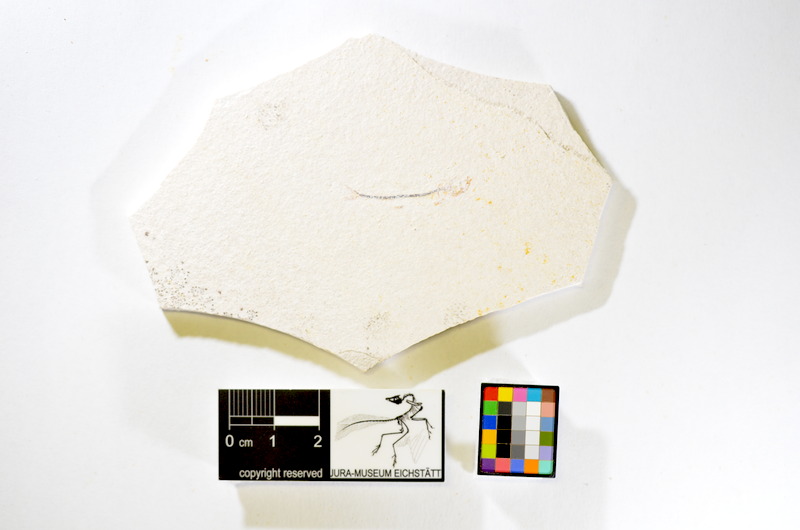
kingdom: Animalia
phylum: Chordata
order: Salmoniformes
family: Orthogonikleithridae
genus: Orthogonikleithrus
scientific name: Orthogonikleithrus hoelli
